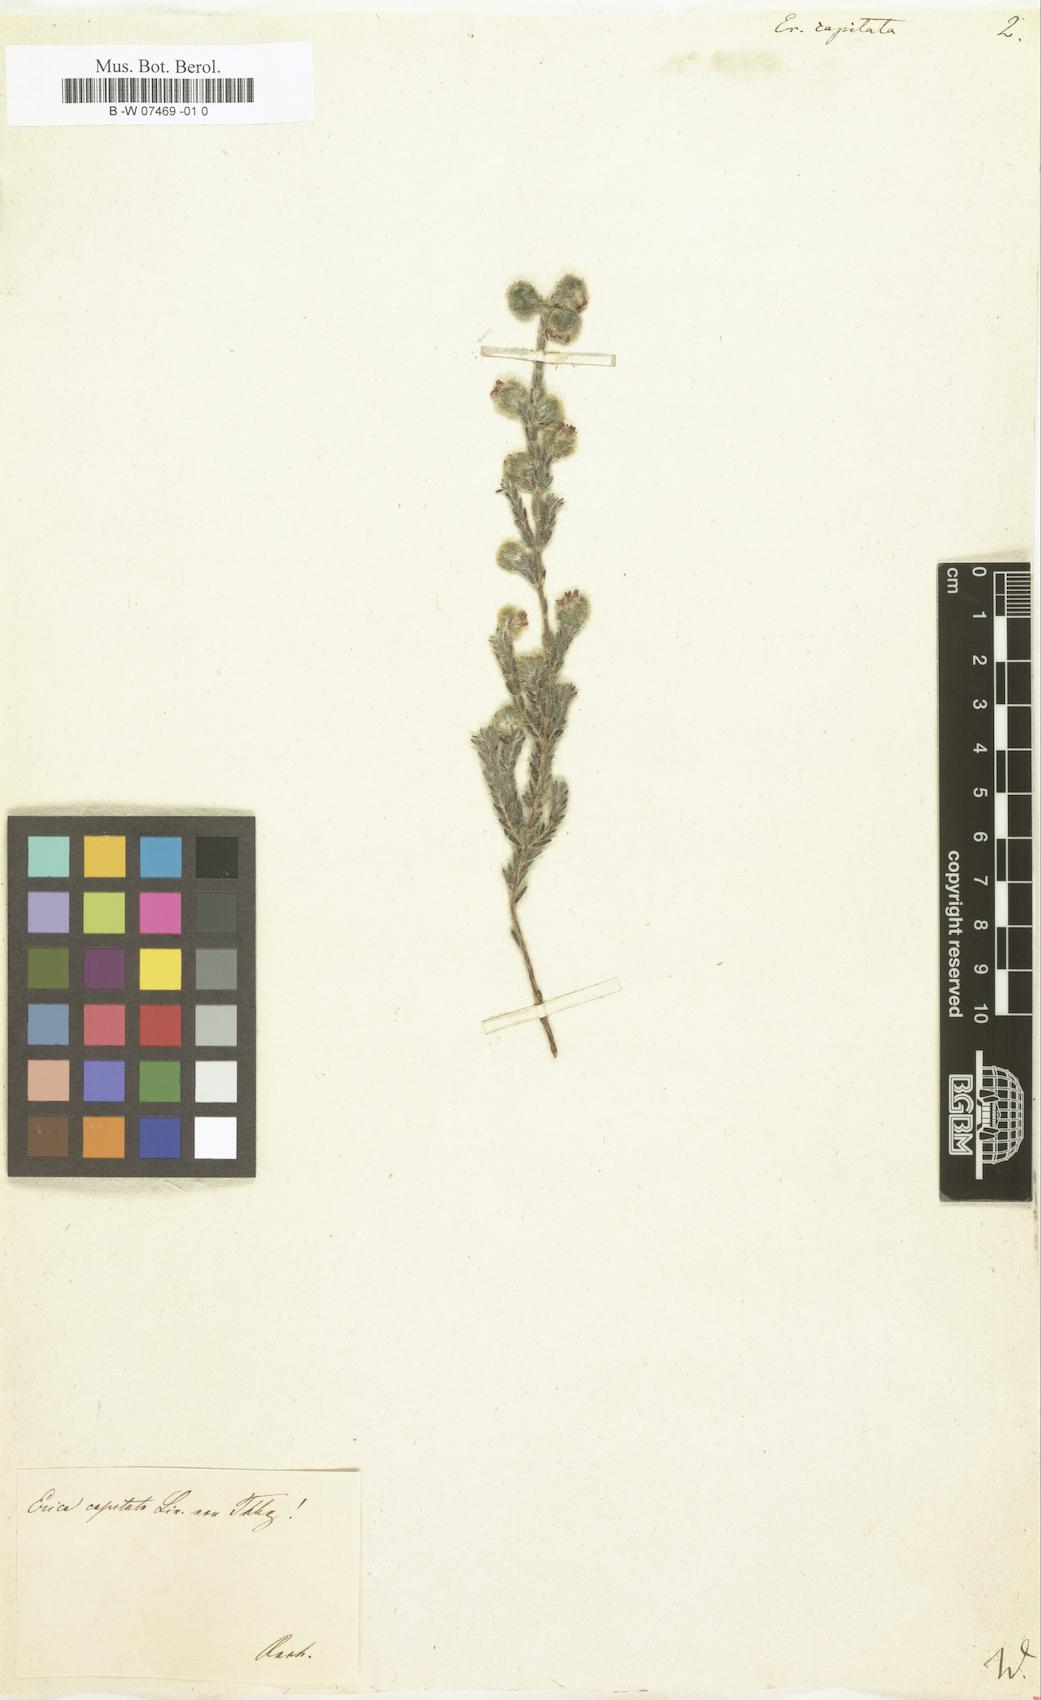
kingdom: Plantae
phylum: Tracheophyta
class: Magnoliopsida
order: Ericales
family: Ericaceae
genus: Erica
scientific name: Erica capitata
